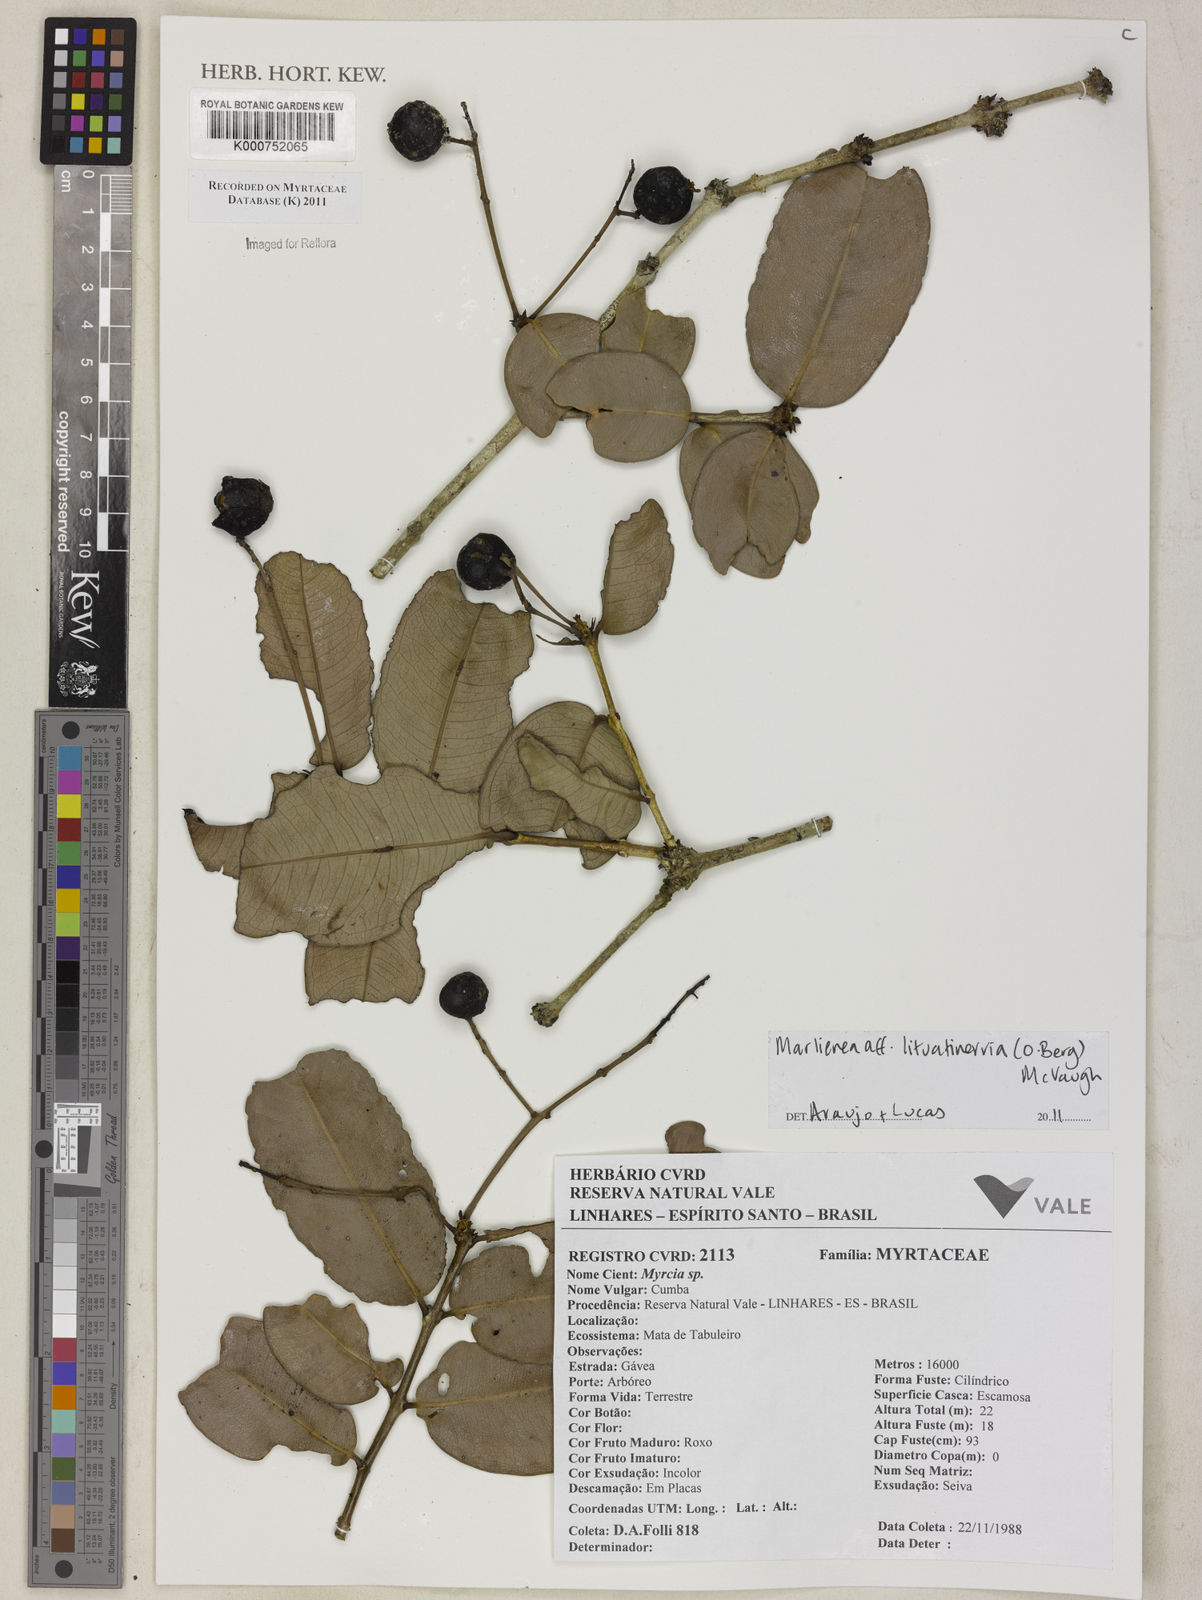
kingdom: Plantae
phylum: Tracheophyta
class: Magnoliopsida
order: Myrtales
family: Myrtaceae
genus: Myrcia
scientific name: Myrcia lituatinervia
